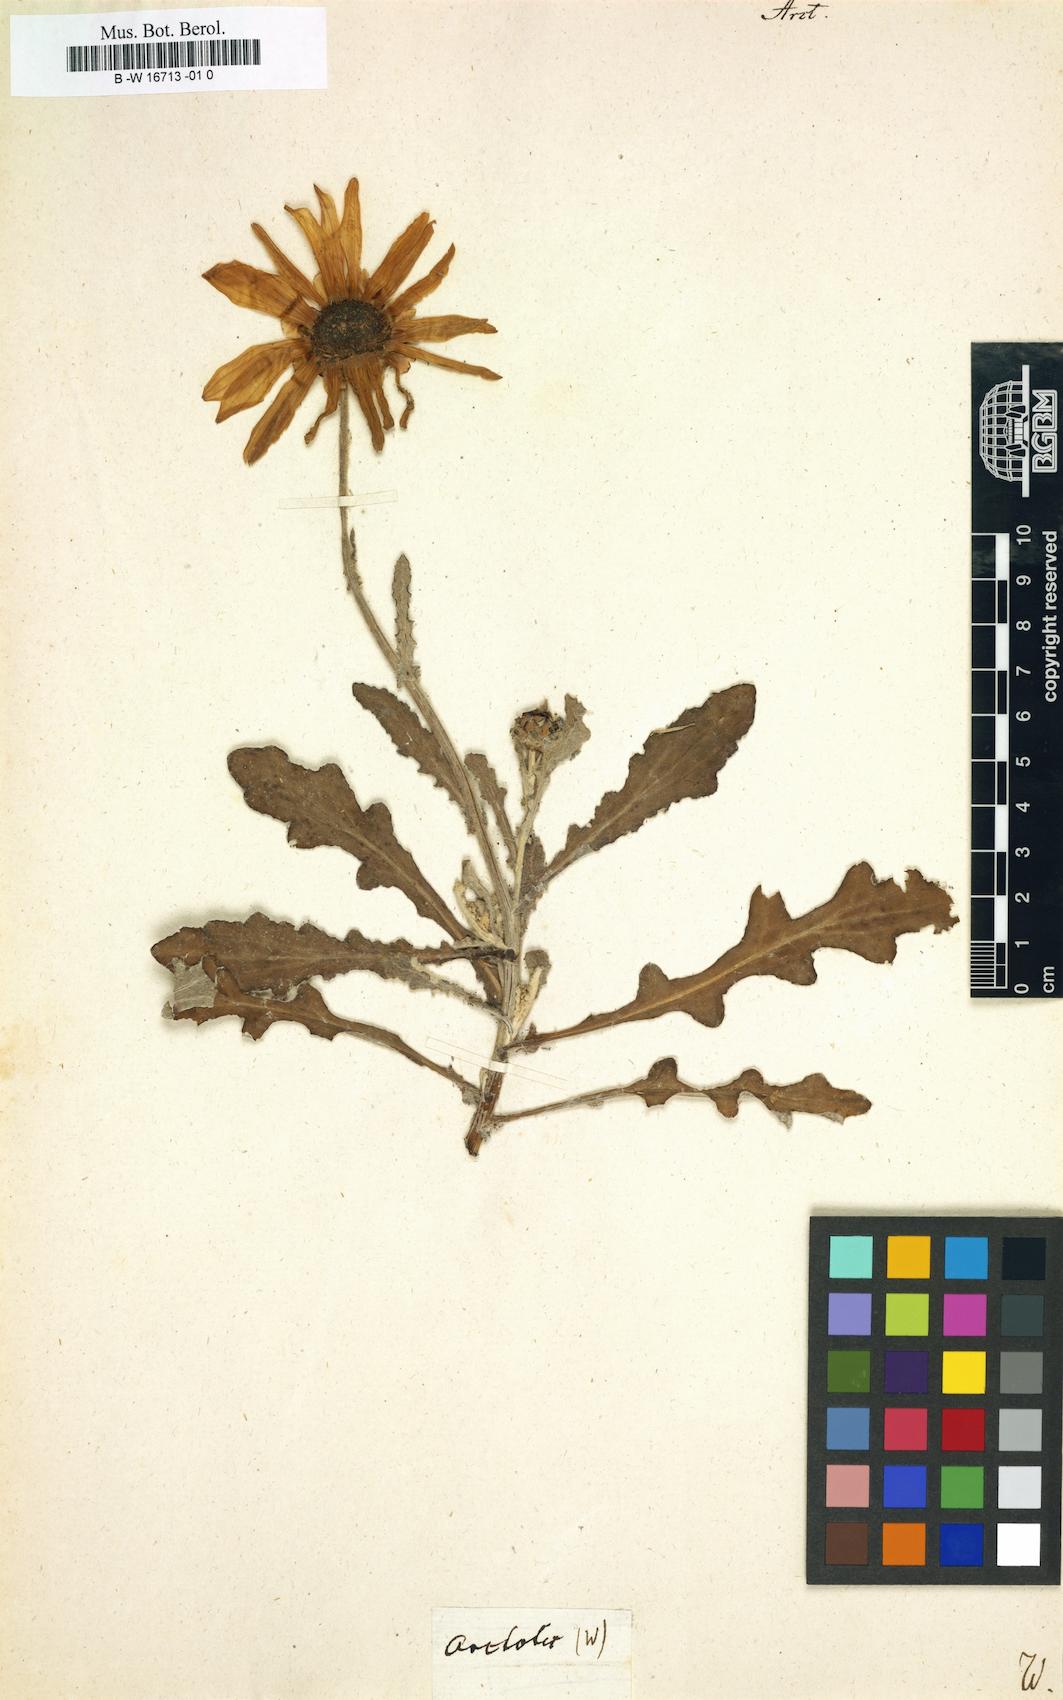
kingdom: Plantae
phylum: Tracheophyta
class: Magnoliopsida
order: Asterales
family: Asteraceae
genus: Arctotis
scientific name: Arctotis
